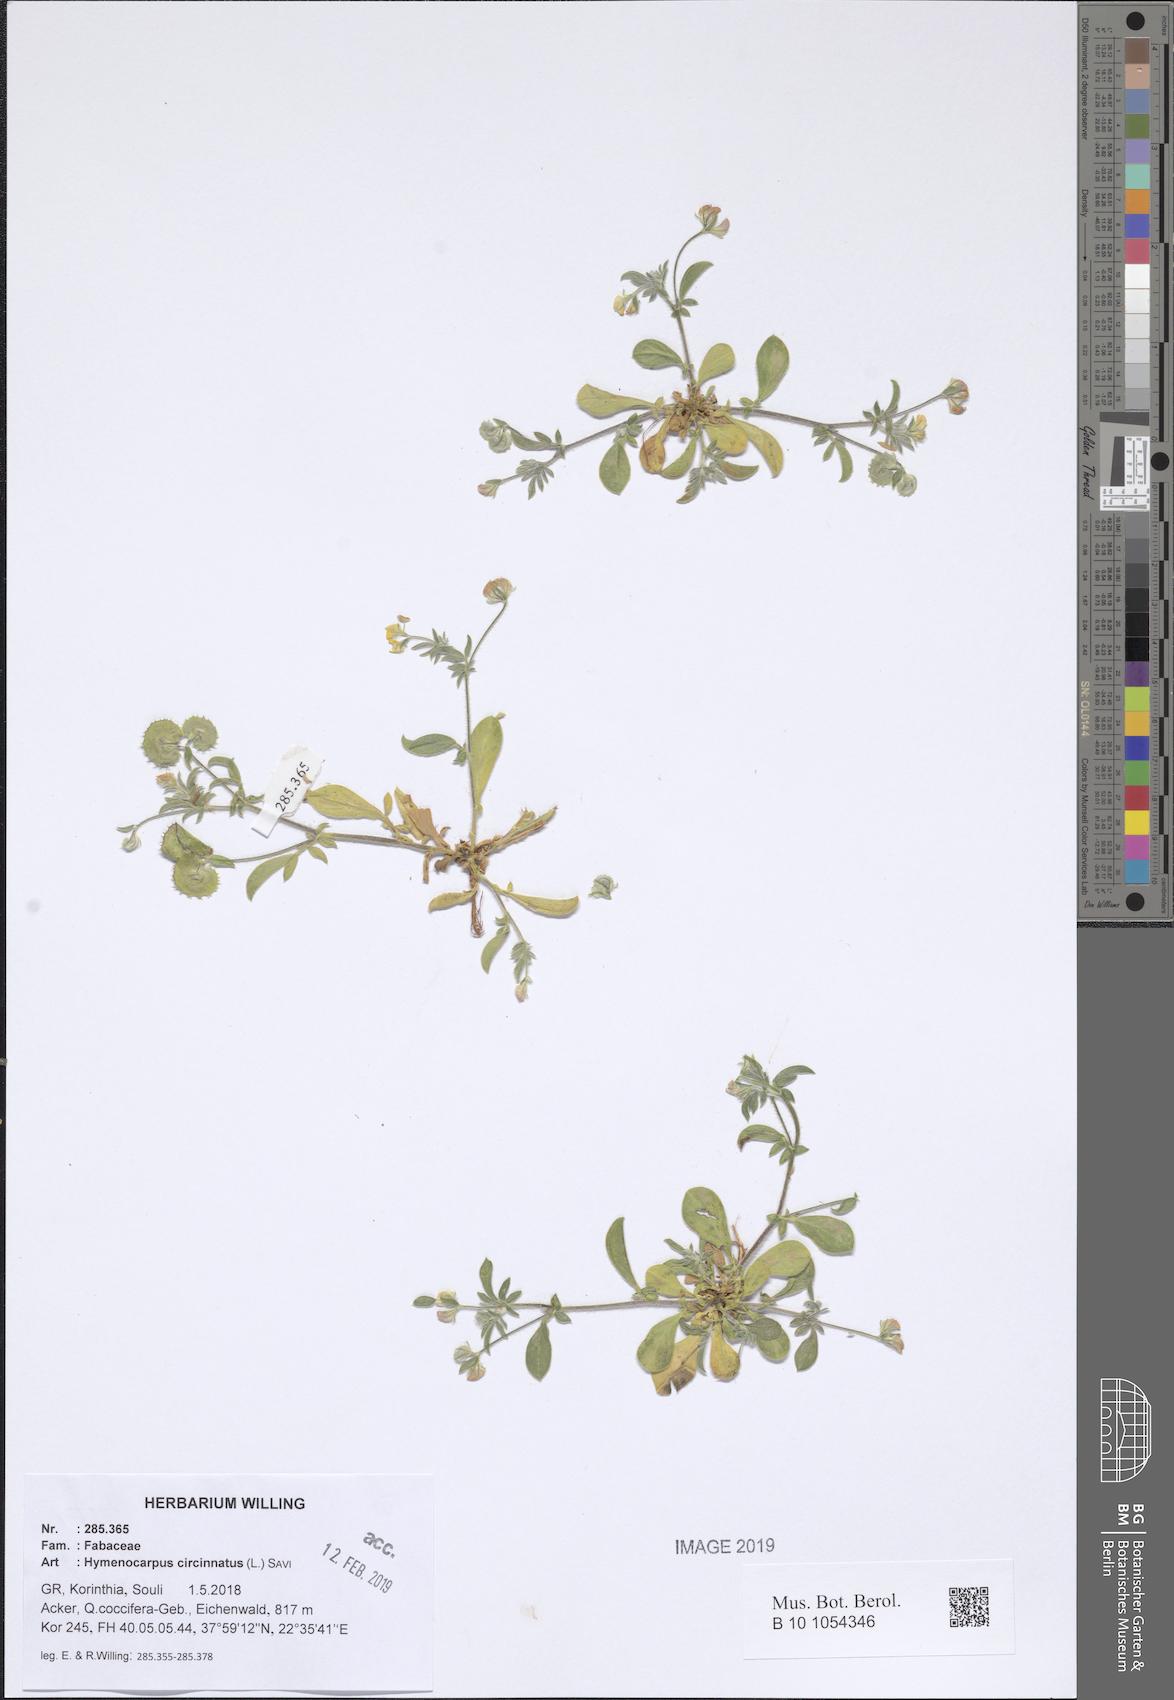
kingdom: Plantae
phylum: Tracheophyta
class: Magnoliopsida
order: Fabales
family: Fabaceae
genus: Anthyllis
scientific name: Anthyllis circinnata
